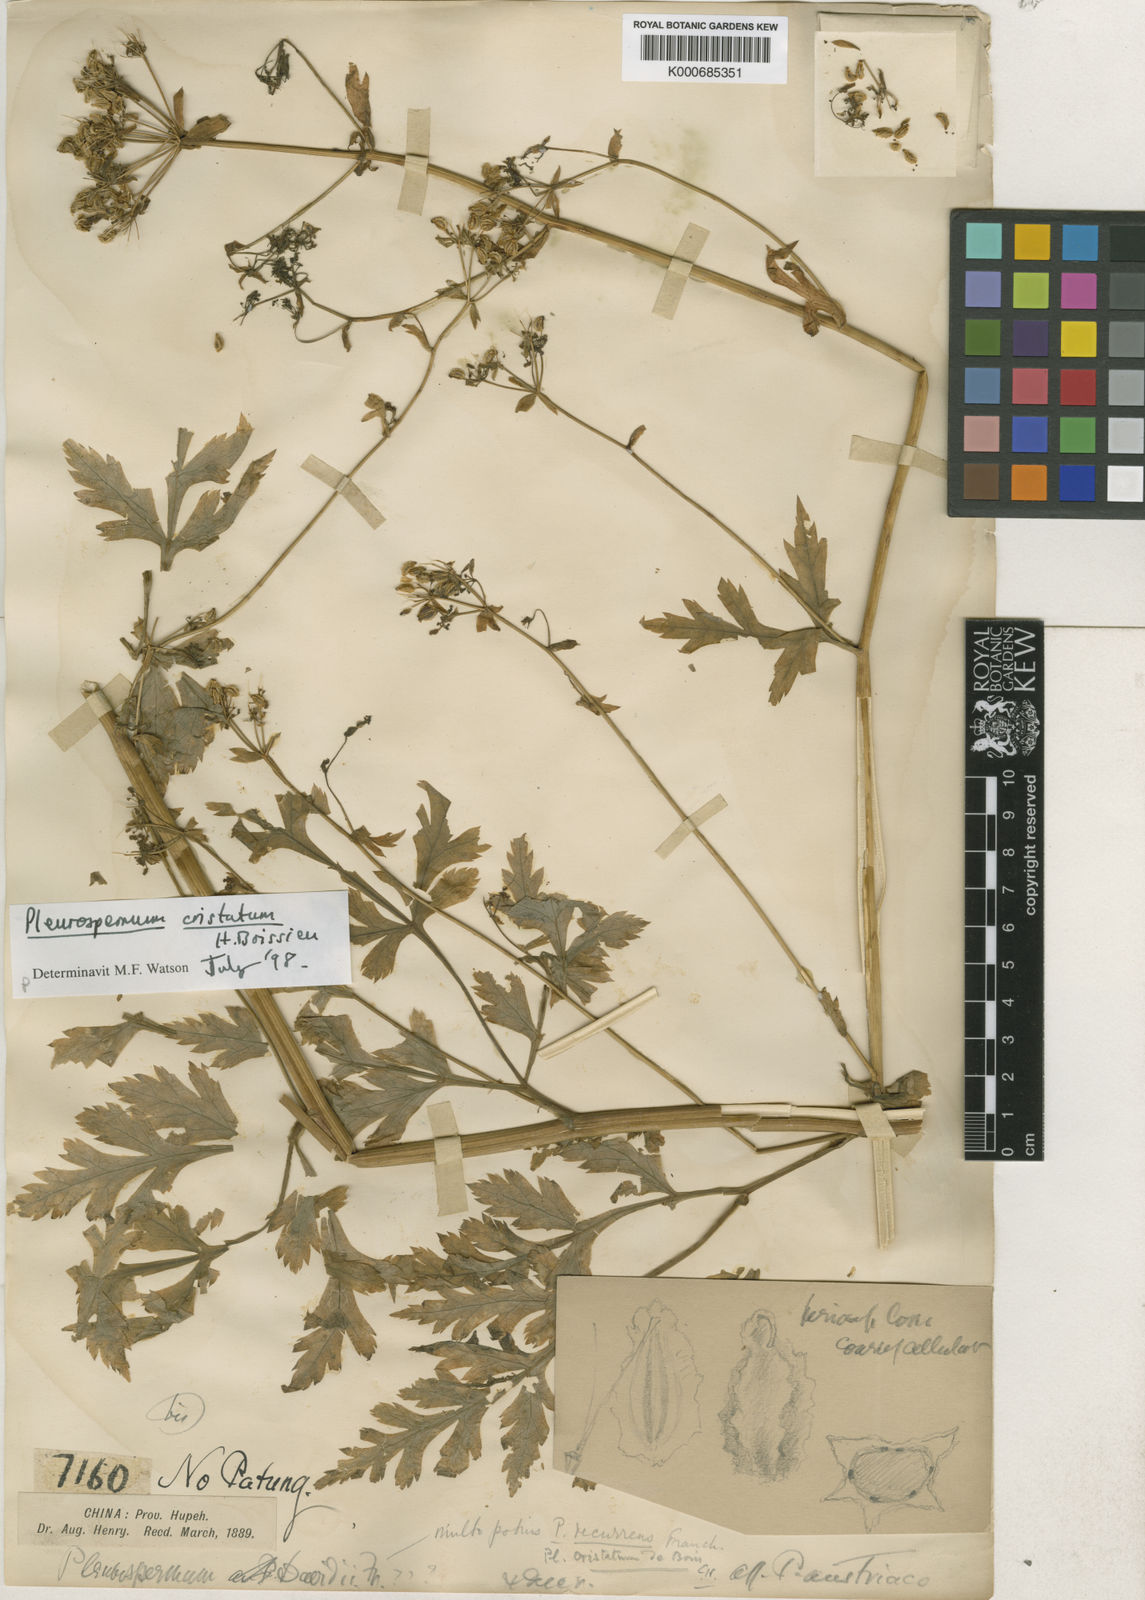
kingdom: Plantae
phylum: Tracheophyta
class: Magnoliopsida
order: Apiales
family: Apiaceae
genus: Hymenidium
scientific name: Hymenidium cristatum
